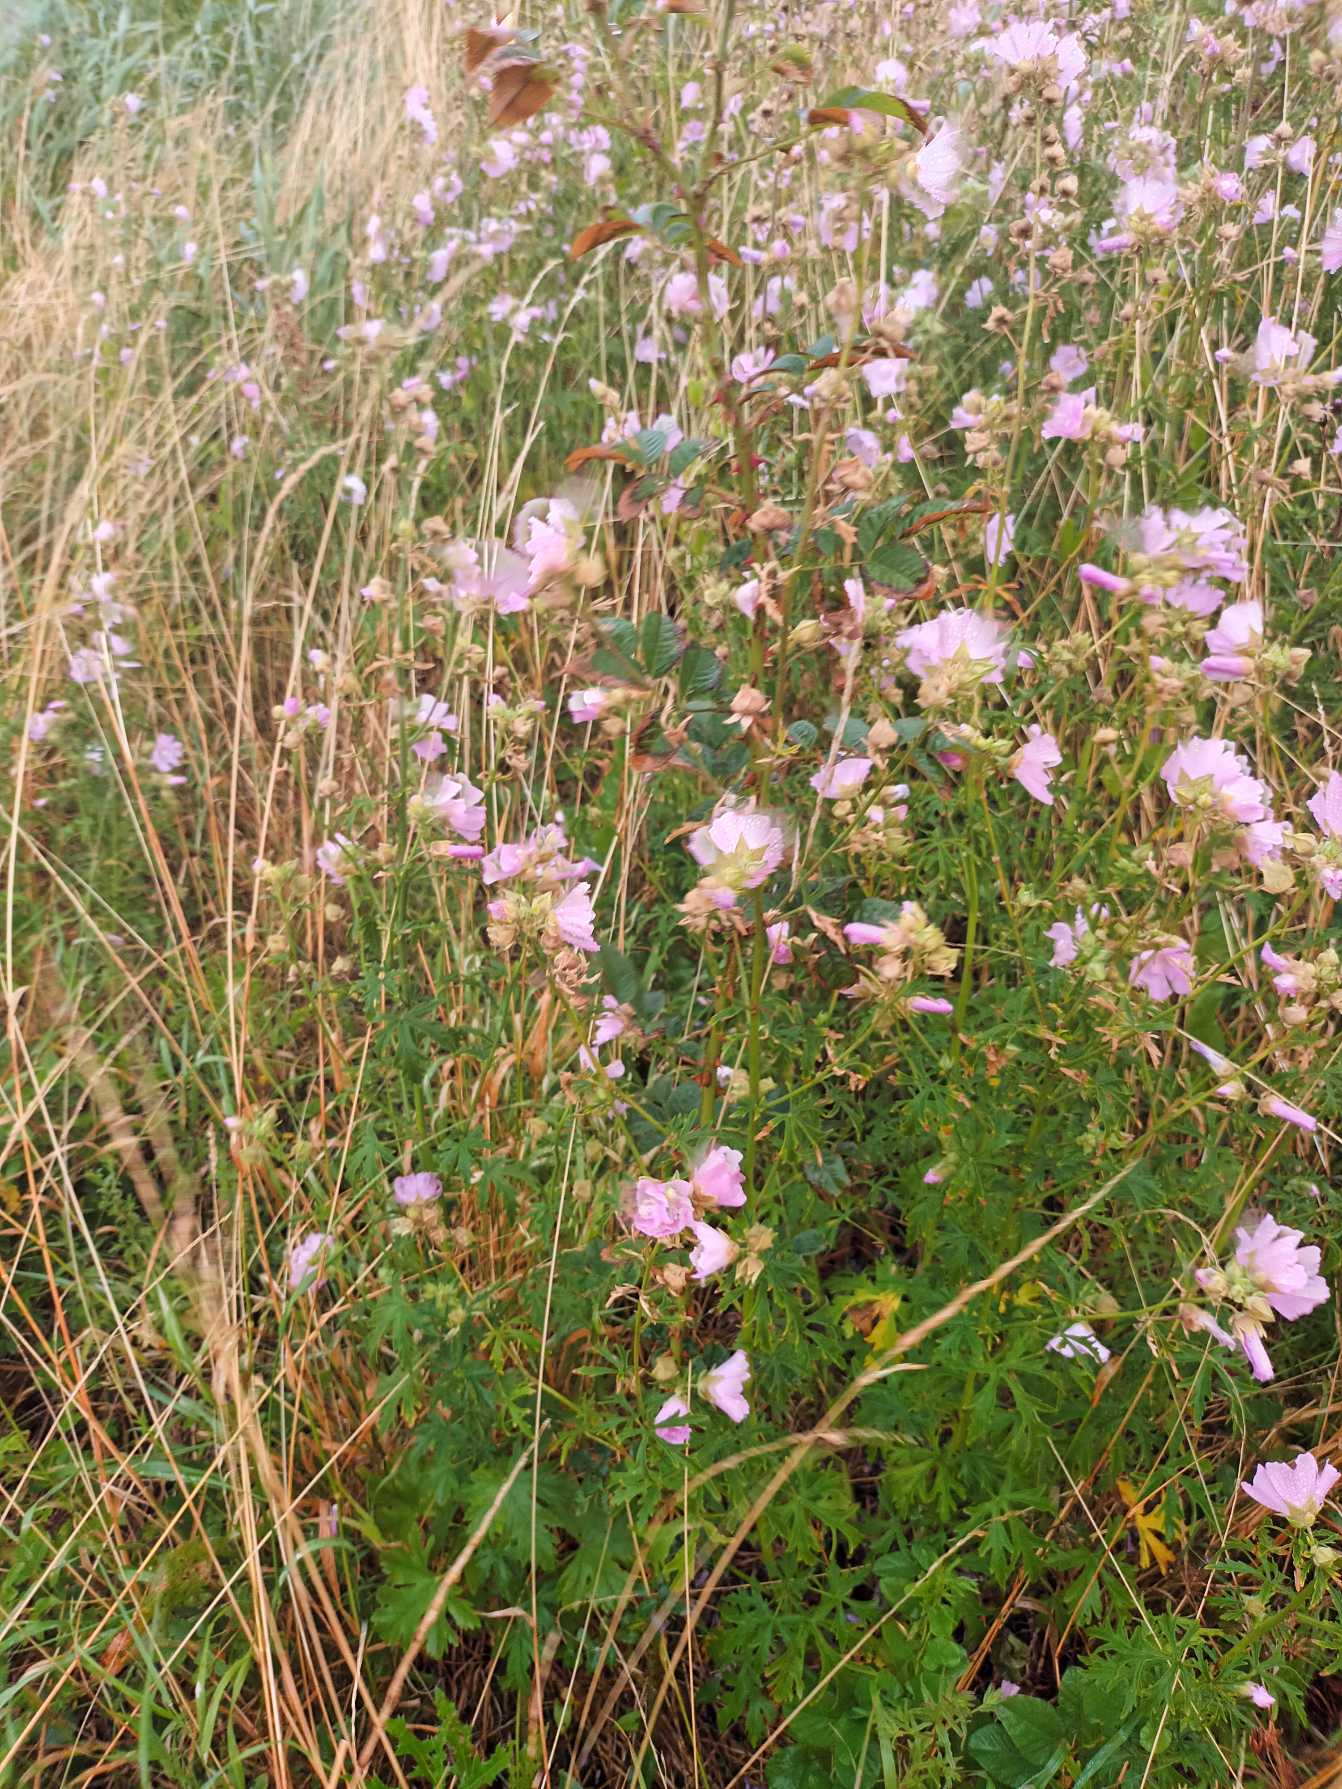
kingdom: Plantae
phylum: Tracheophyta
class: Magnoliopsida
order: Malvales
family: Malvaceae
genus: Malva
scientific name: Malva alcea
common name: Rosen-katost
